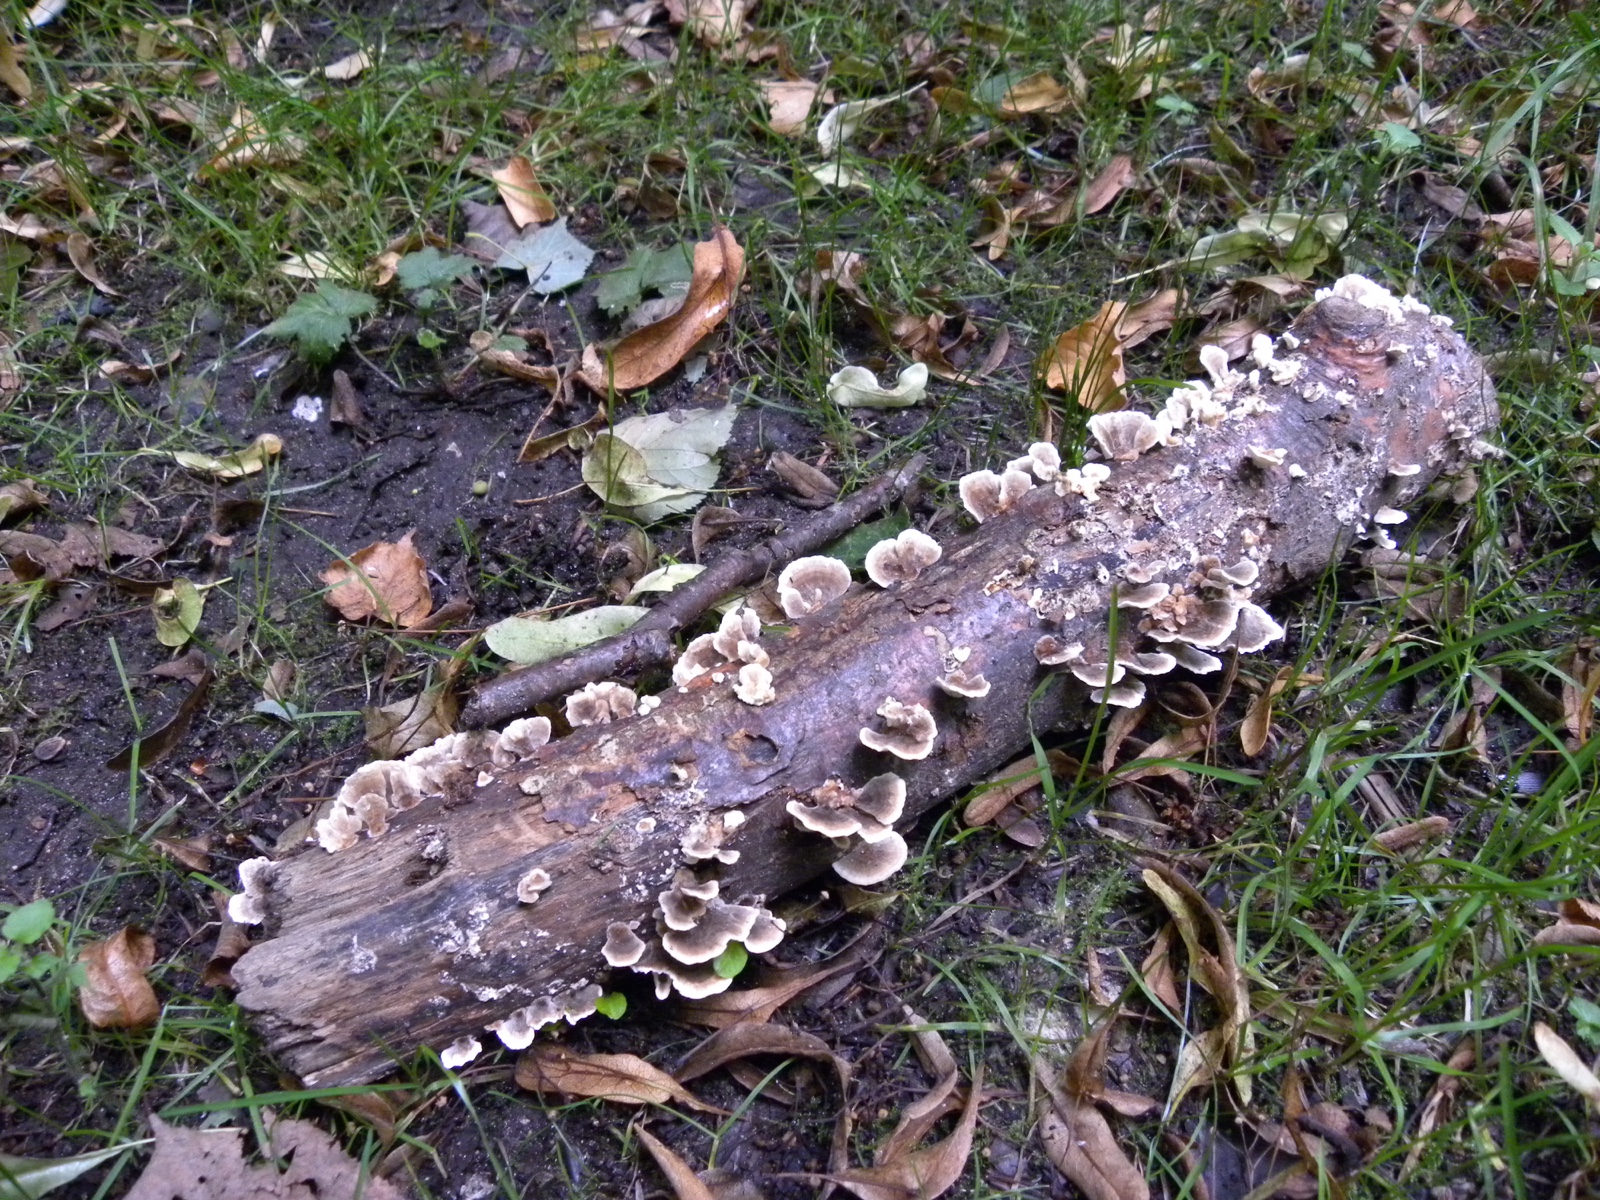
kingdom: Fungi
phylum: Basidiomycota
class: Agaricomycetes
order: Polyporales
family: Polyporaceae
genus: Trametes
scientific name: Trametes versicolor
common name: broget læderporesvamp
